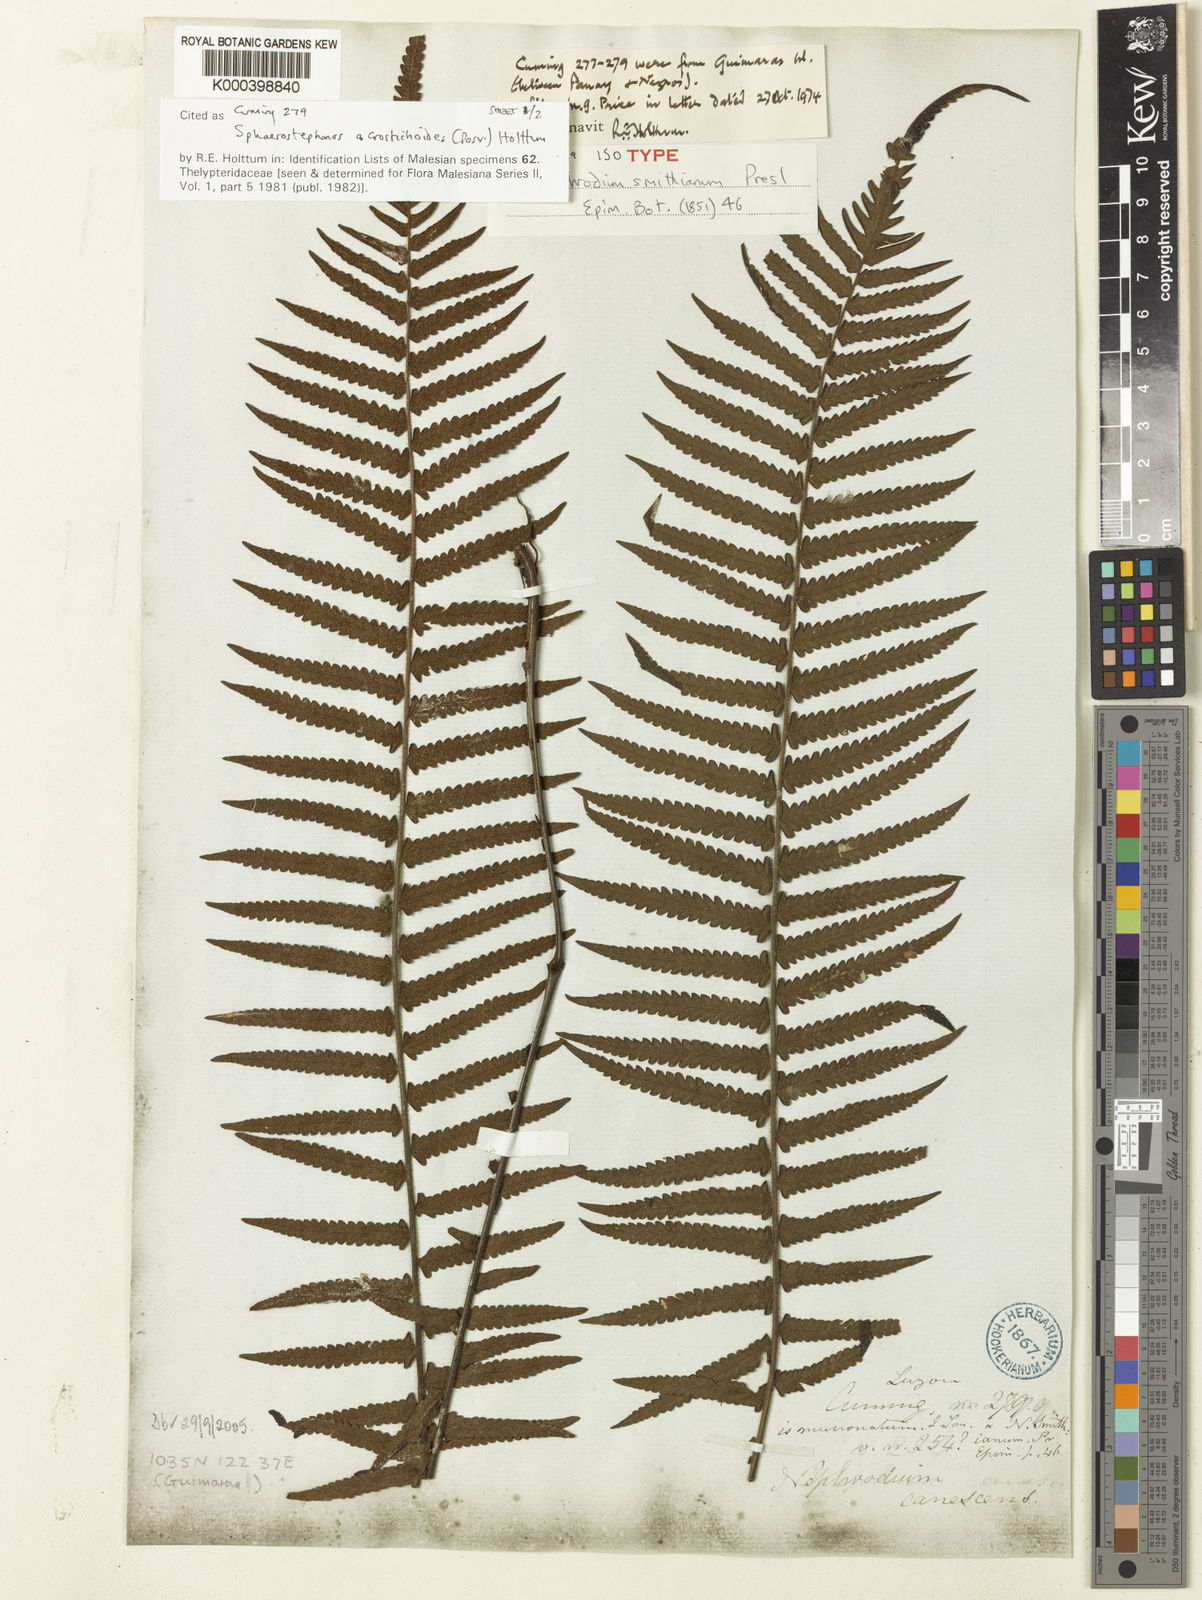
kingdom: Plantae
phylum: Tracheophyta
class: Polypodiopsida
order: Polypodiales
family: Thelypteridaceae
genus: Sphaerostephanos
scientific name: Sphaerostephanos acrostichoides
